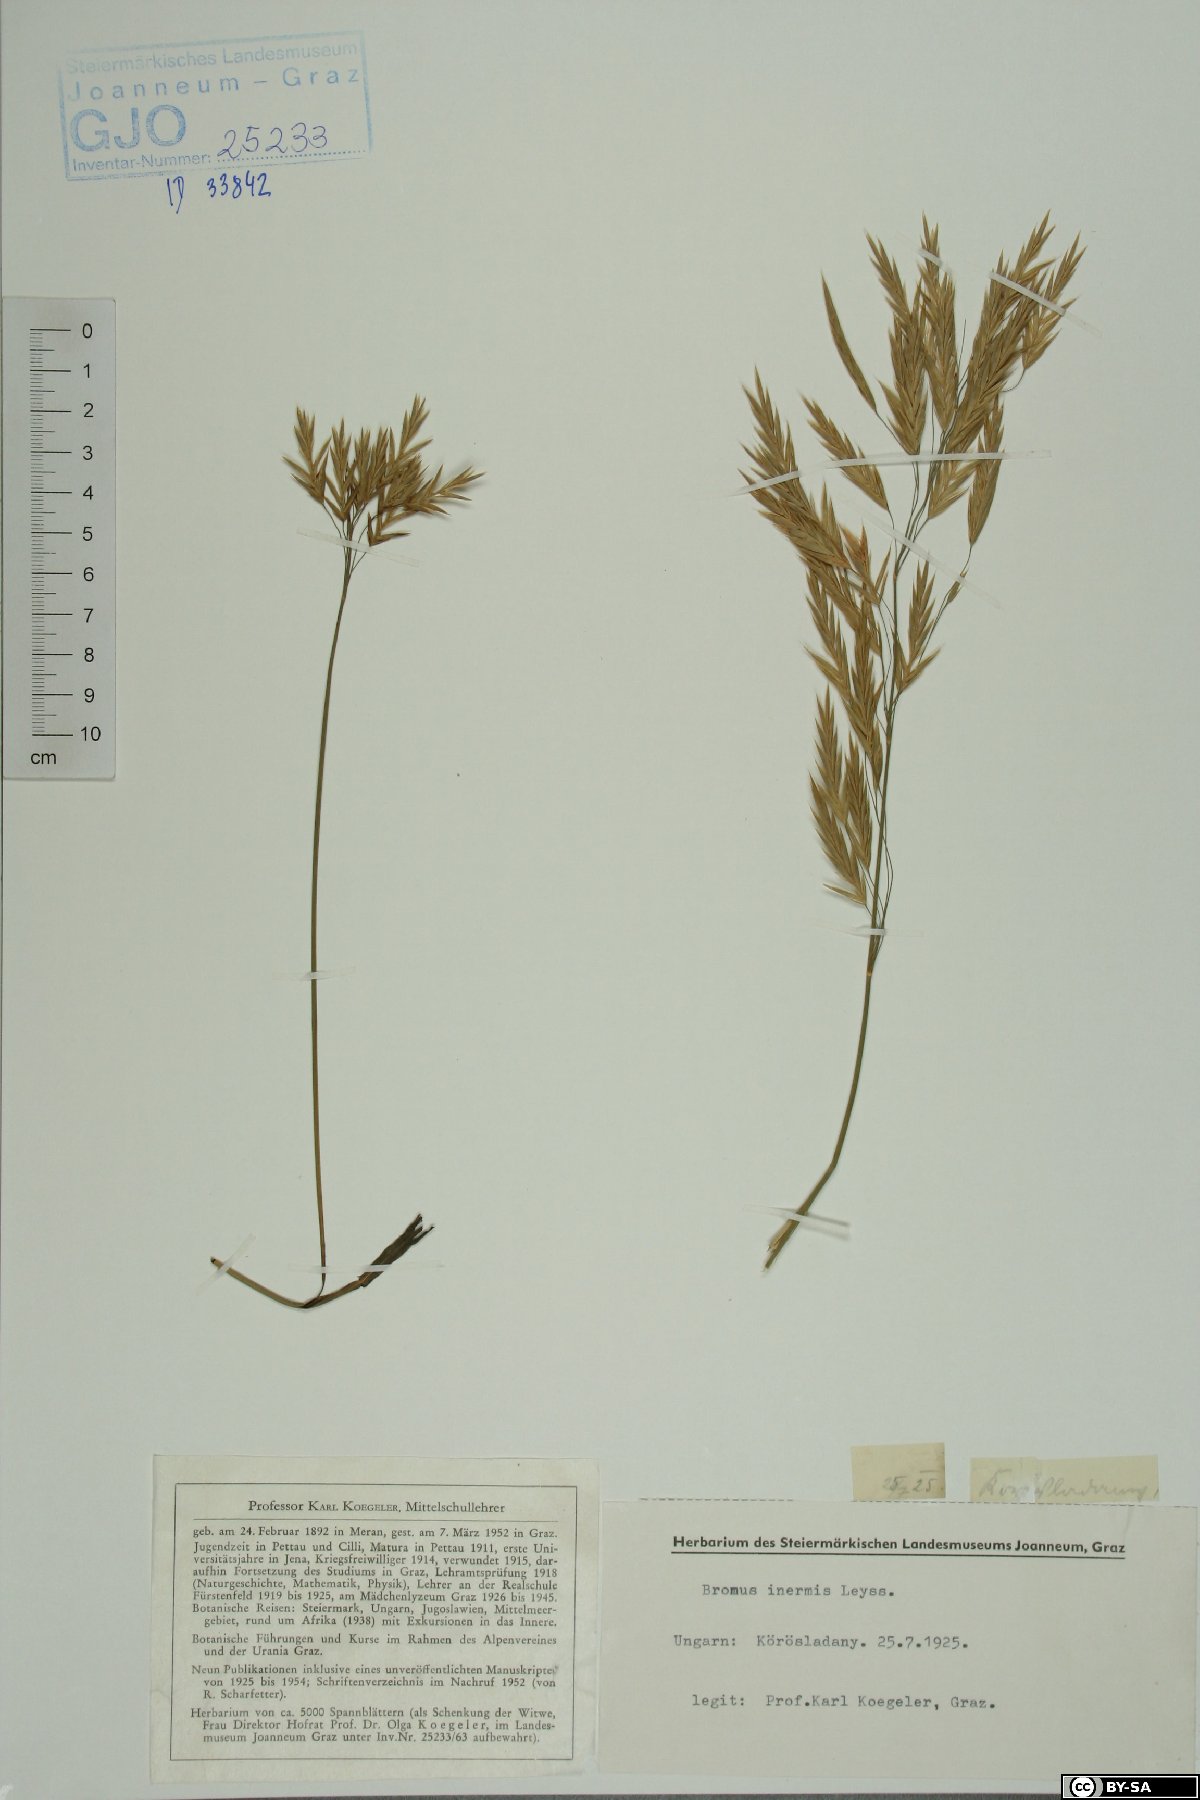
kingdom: Plantae
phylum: Tracheophyta
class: Liliopsida
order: Poales
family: Poaceae
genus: Bromus
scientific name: Bromus inermis
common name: Smooth brome
